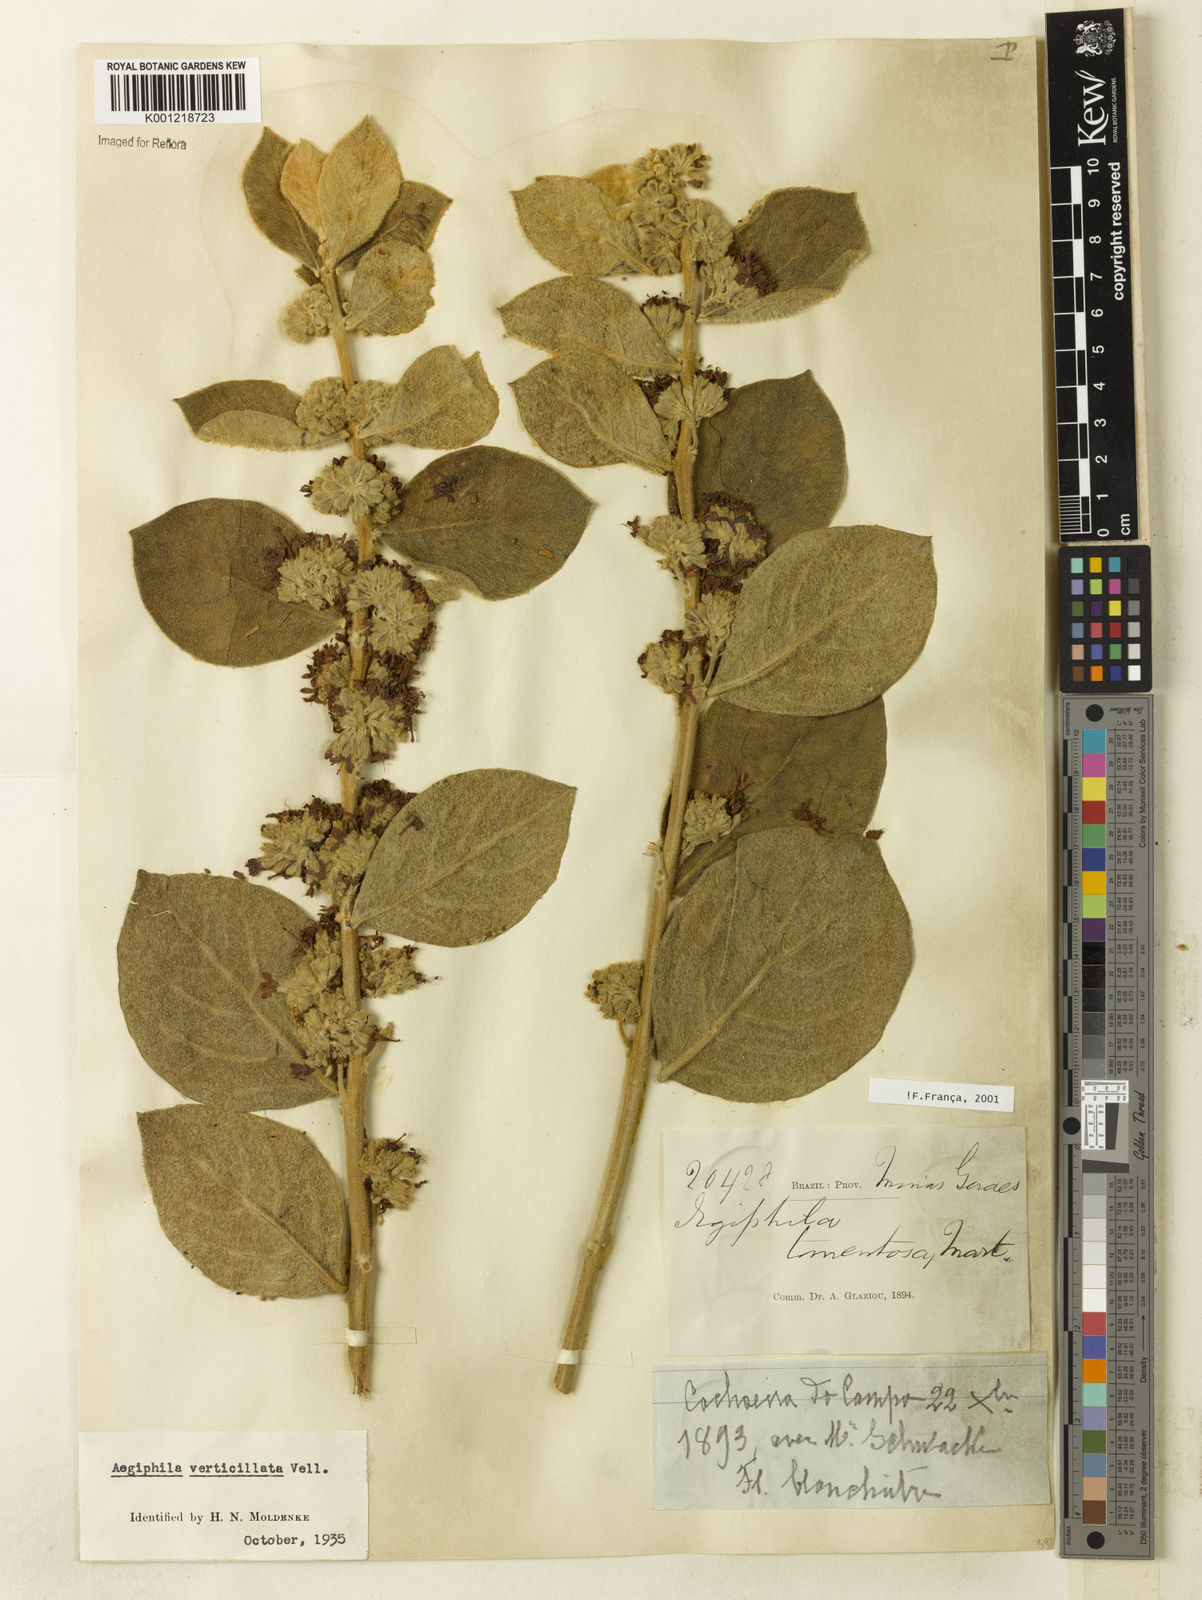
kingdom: Plantae
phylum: Tracheophyta
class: Magnoliopsida
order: Lamiales
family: Lamiaceae
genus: Aegiphila
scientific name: Aegiphila verticillata
